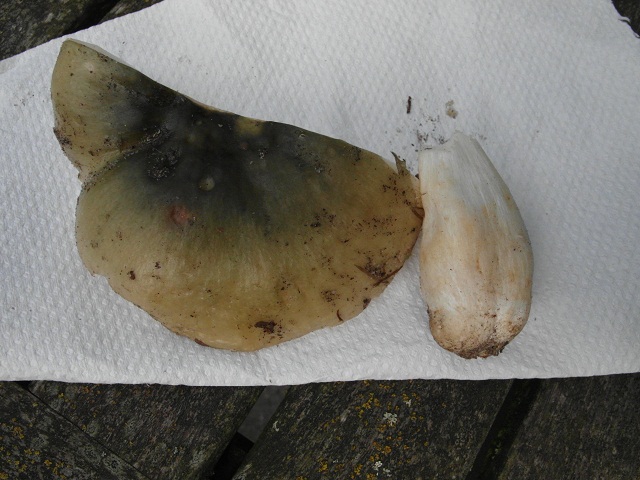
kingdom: Fungi
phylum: Basidiomycota
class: Agaricomycetes
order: Russulales
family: Russulaceae
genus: Russula
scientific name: Russula aeruginea
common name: græsgrøn skørhat
